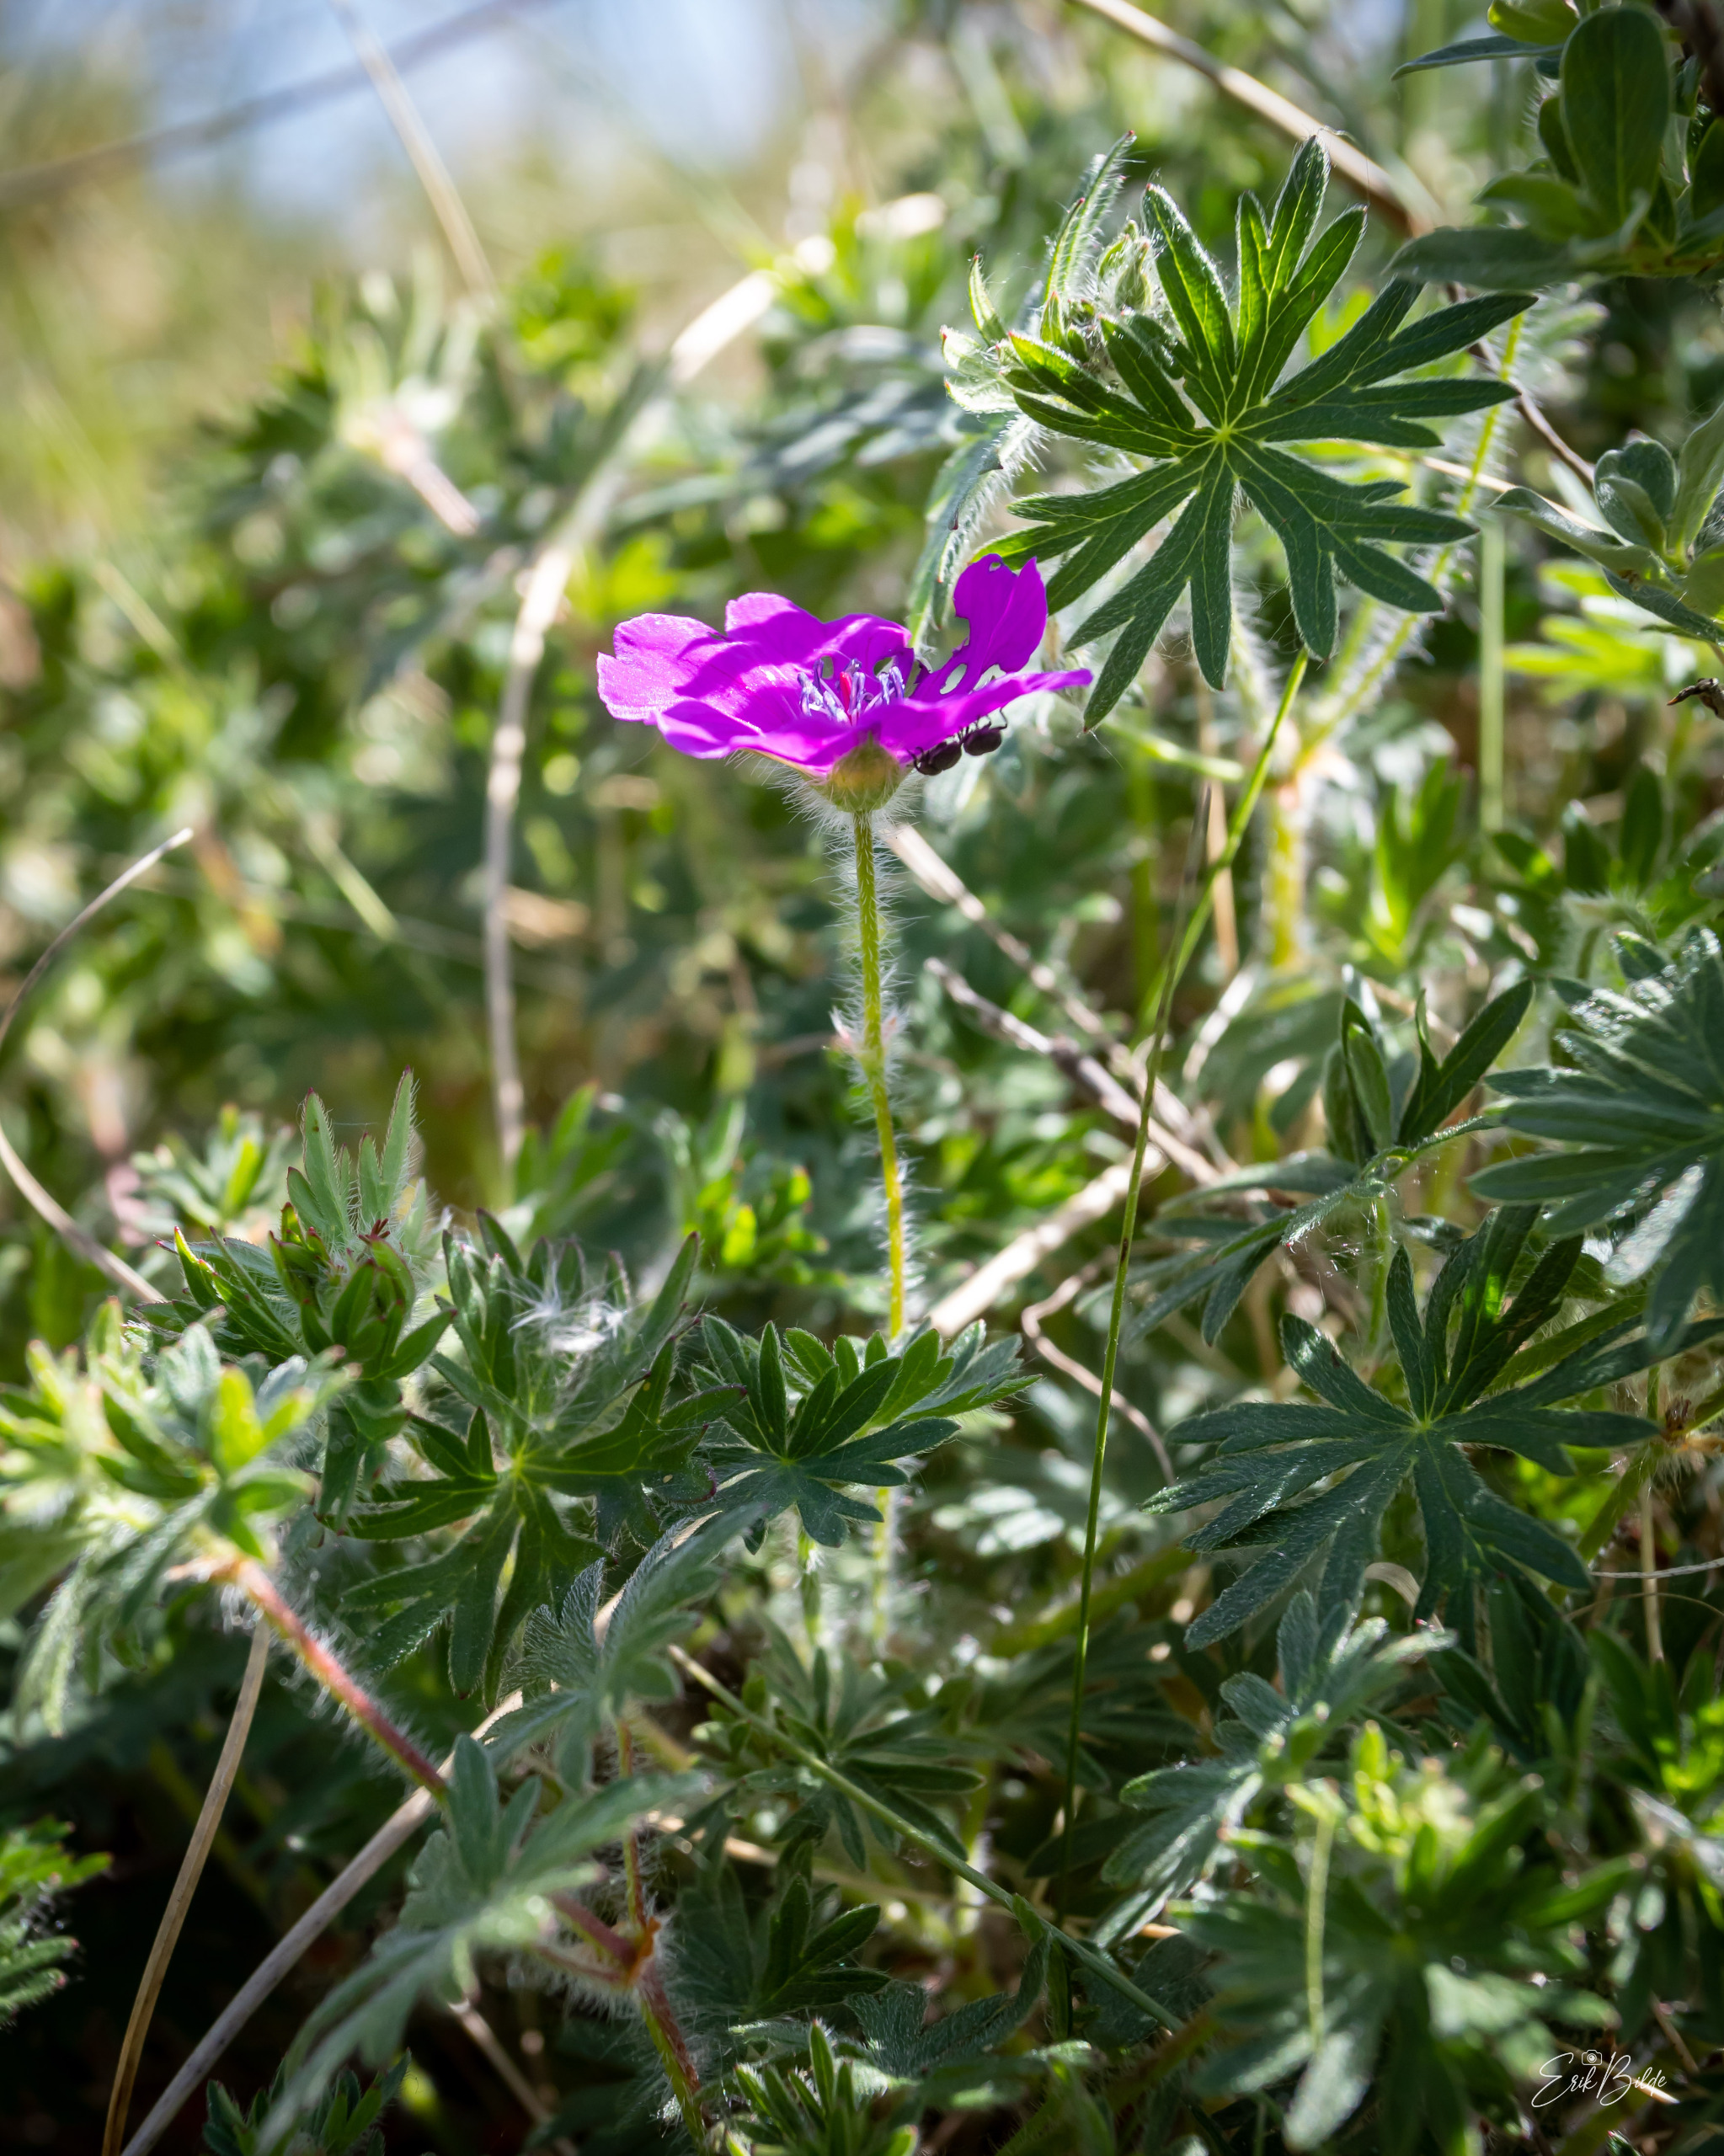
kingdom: Plantae
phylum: Tracheophyta
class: Magnoliopsida
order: Geraniales
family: Geraniaceae
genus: Geranium
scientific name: Geranium sanguineum
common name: Blodrød storkenæb
